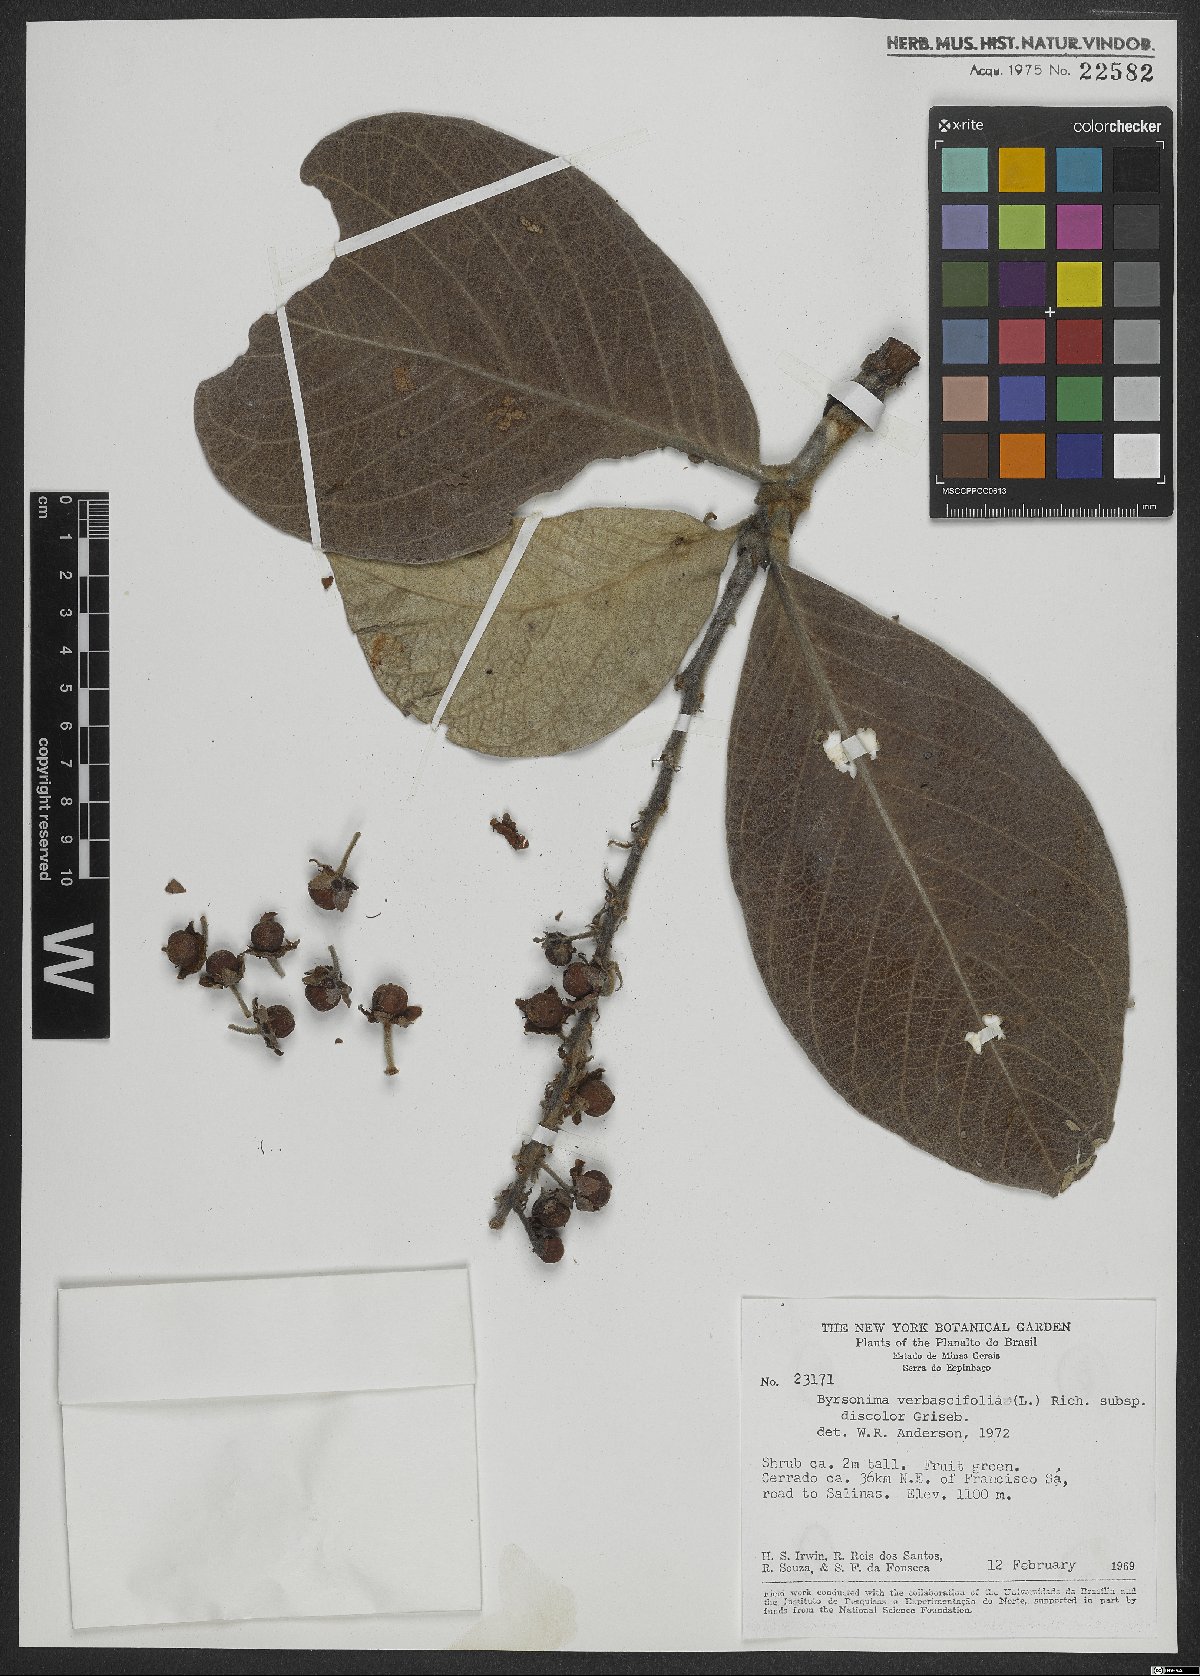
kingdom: Plantae
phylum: Tracheophyta
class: Magnoliopsida
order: Malpighiales
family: Malpighiaceae
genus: Byrsonima
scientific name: Byrsonima verbascifolia
